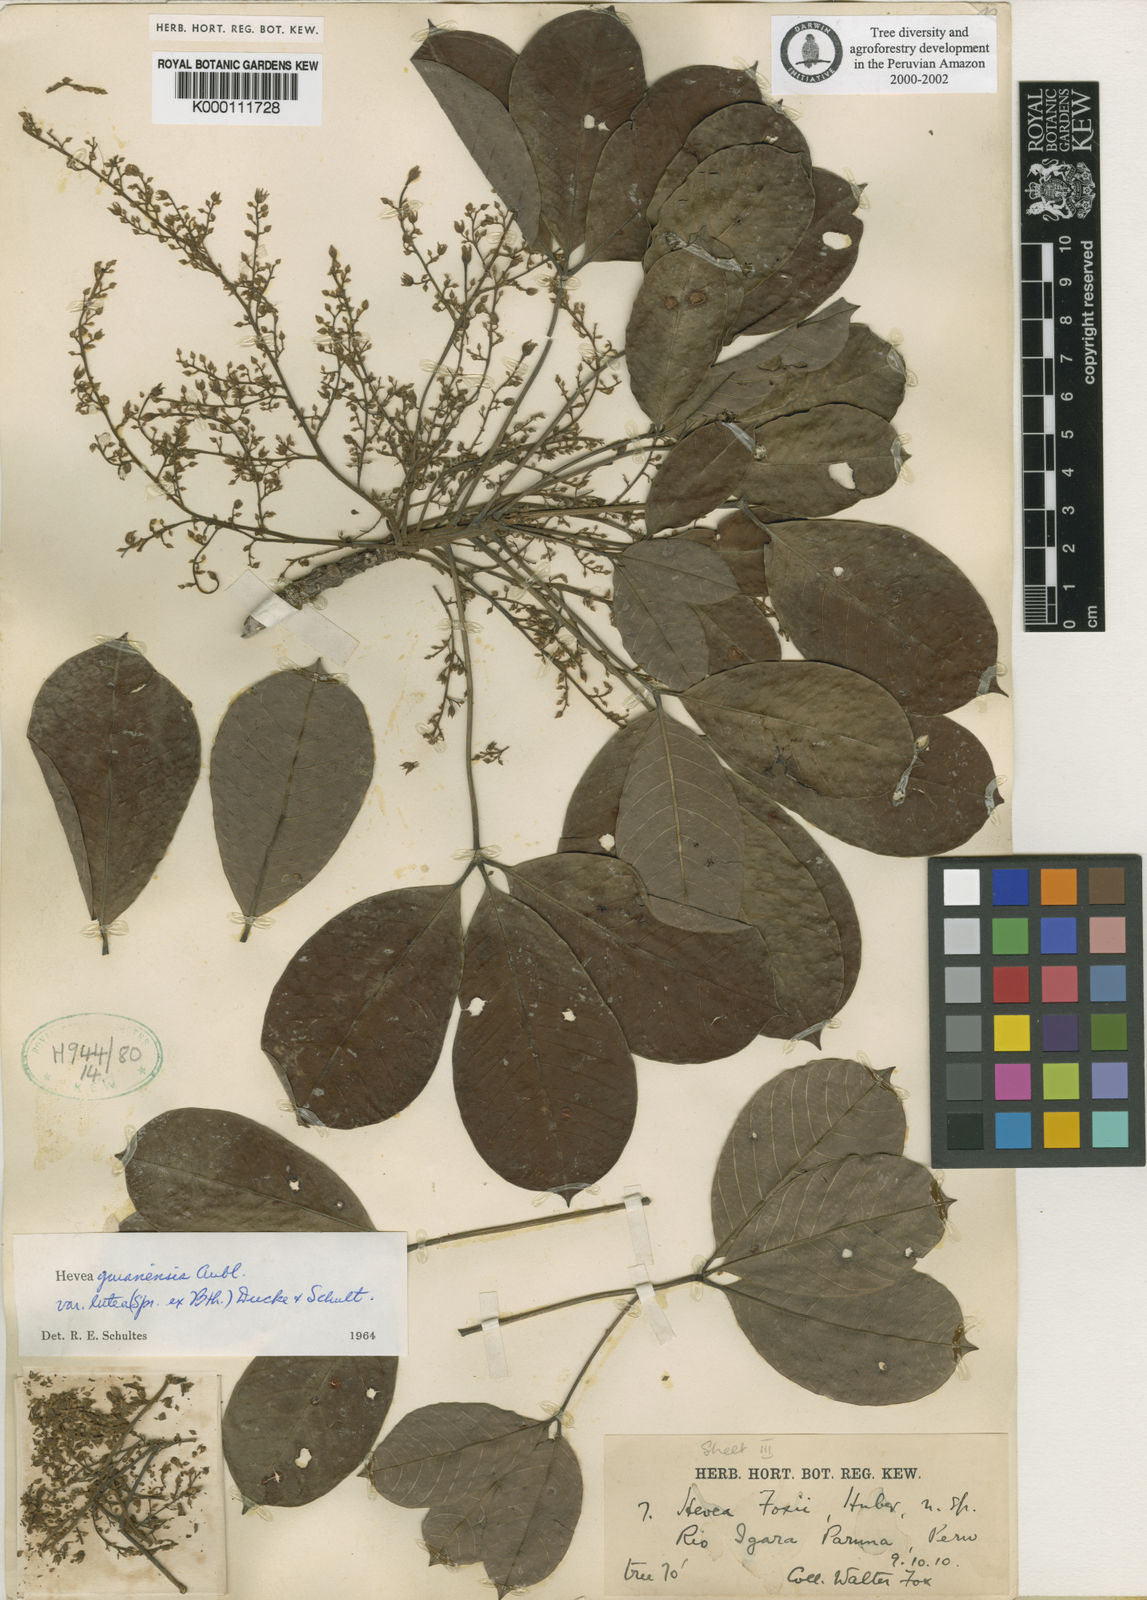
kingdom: Plantae
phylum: Tracheophyta
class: Magnoliopsida
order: Malpighiales
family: Euphorbiaceae
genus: Hevea
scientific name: Hevea guianensis
